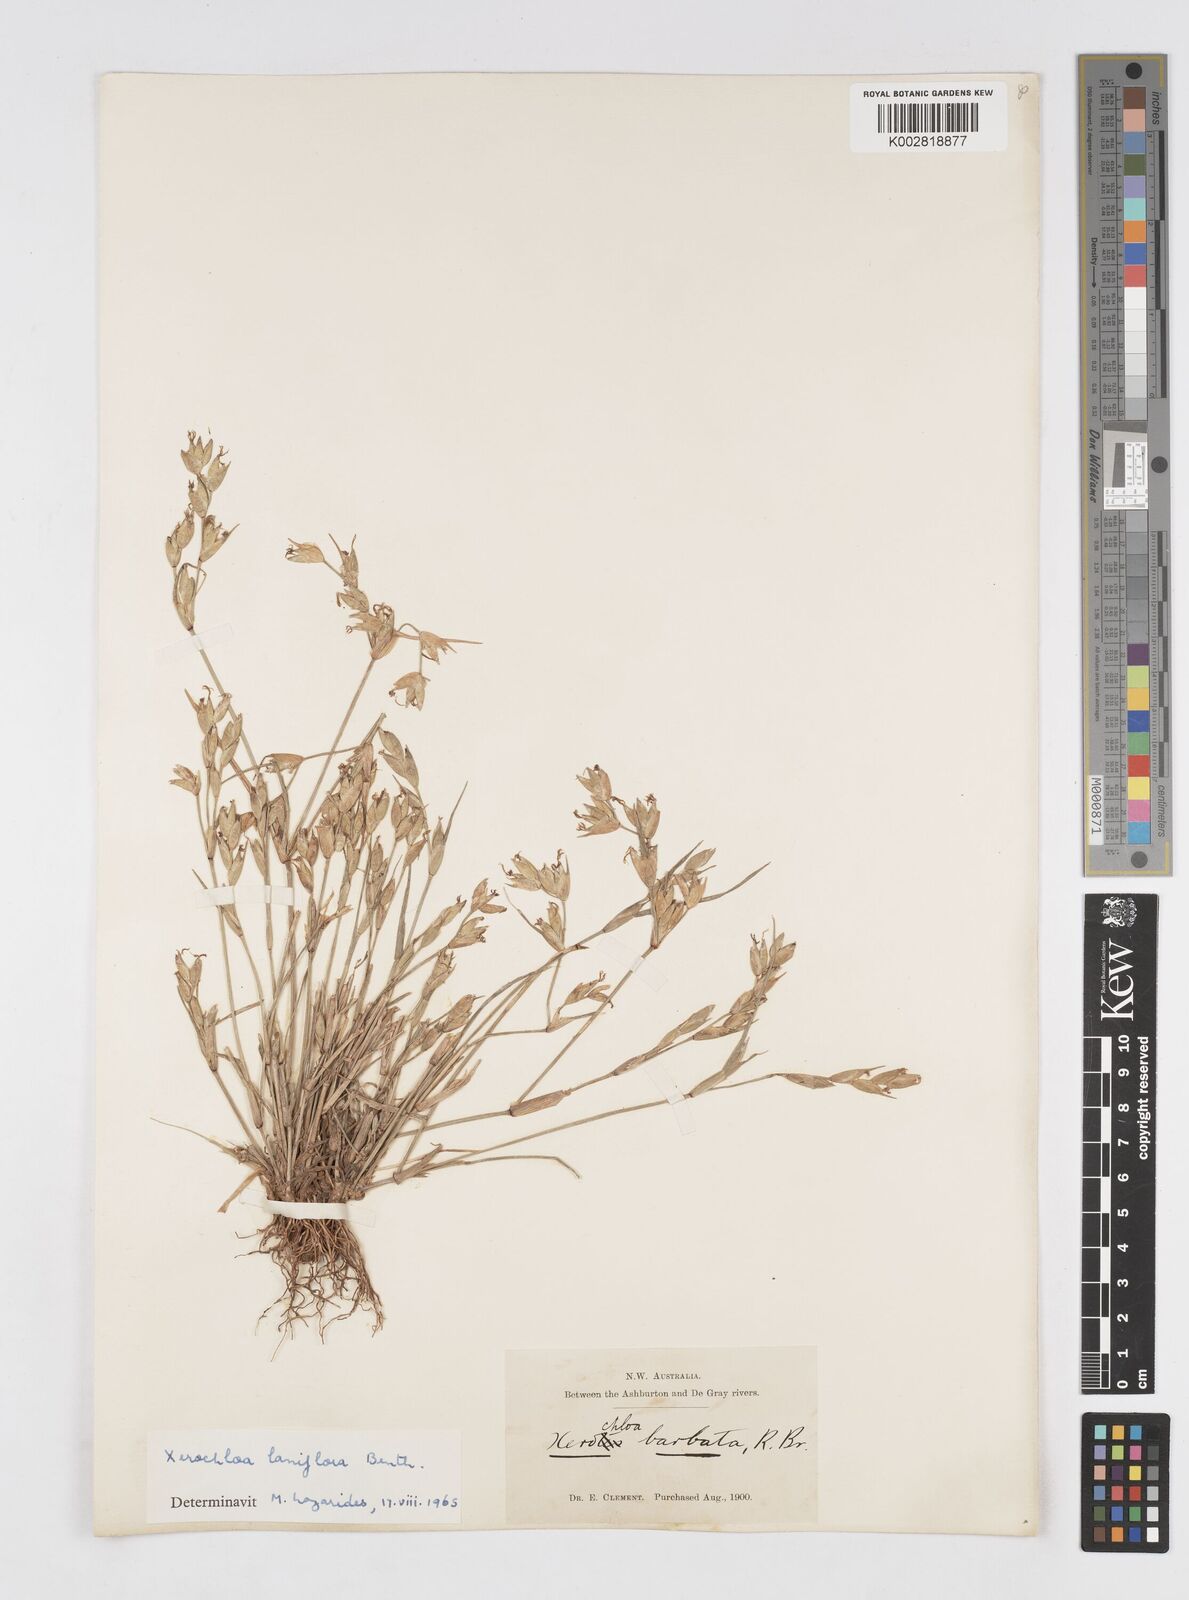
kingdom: Plantae
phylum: Tracheophyta
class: Liliopsida
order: Poales
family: Poaceae
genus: Xerochloa
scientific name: Xerochloa laniflora
